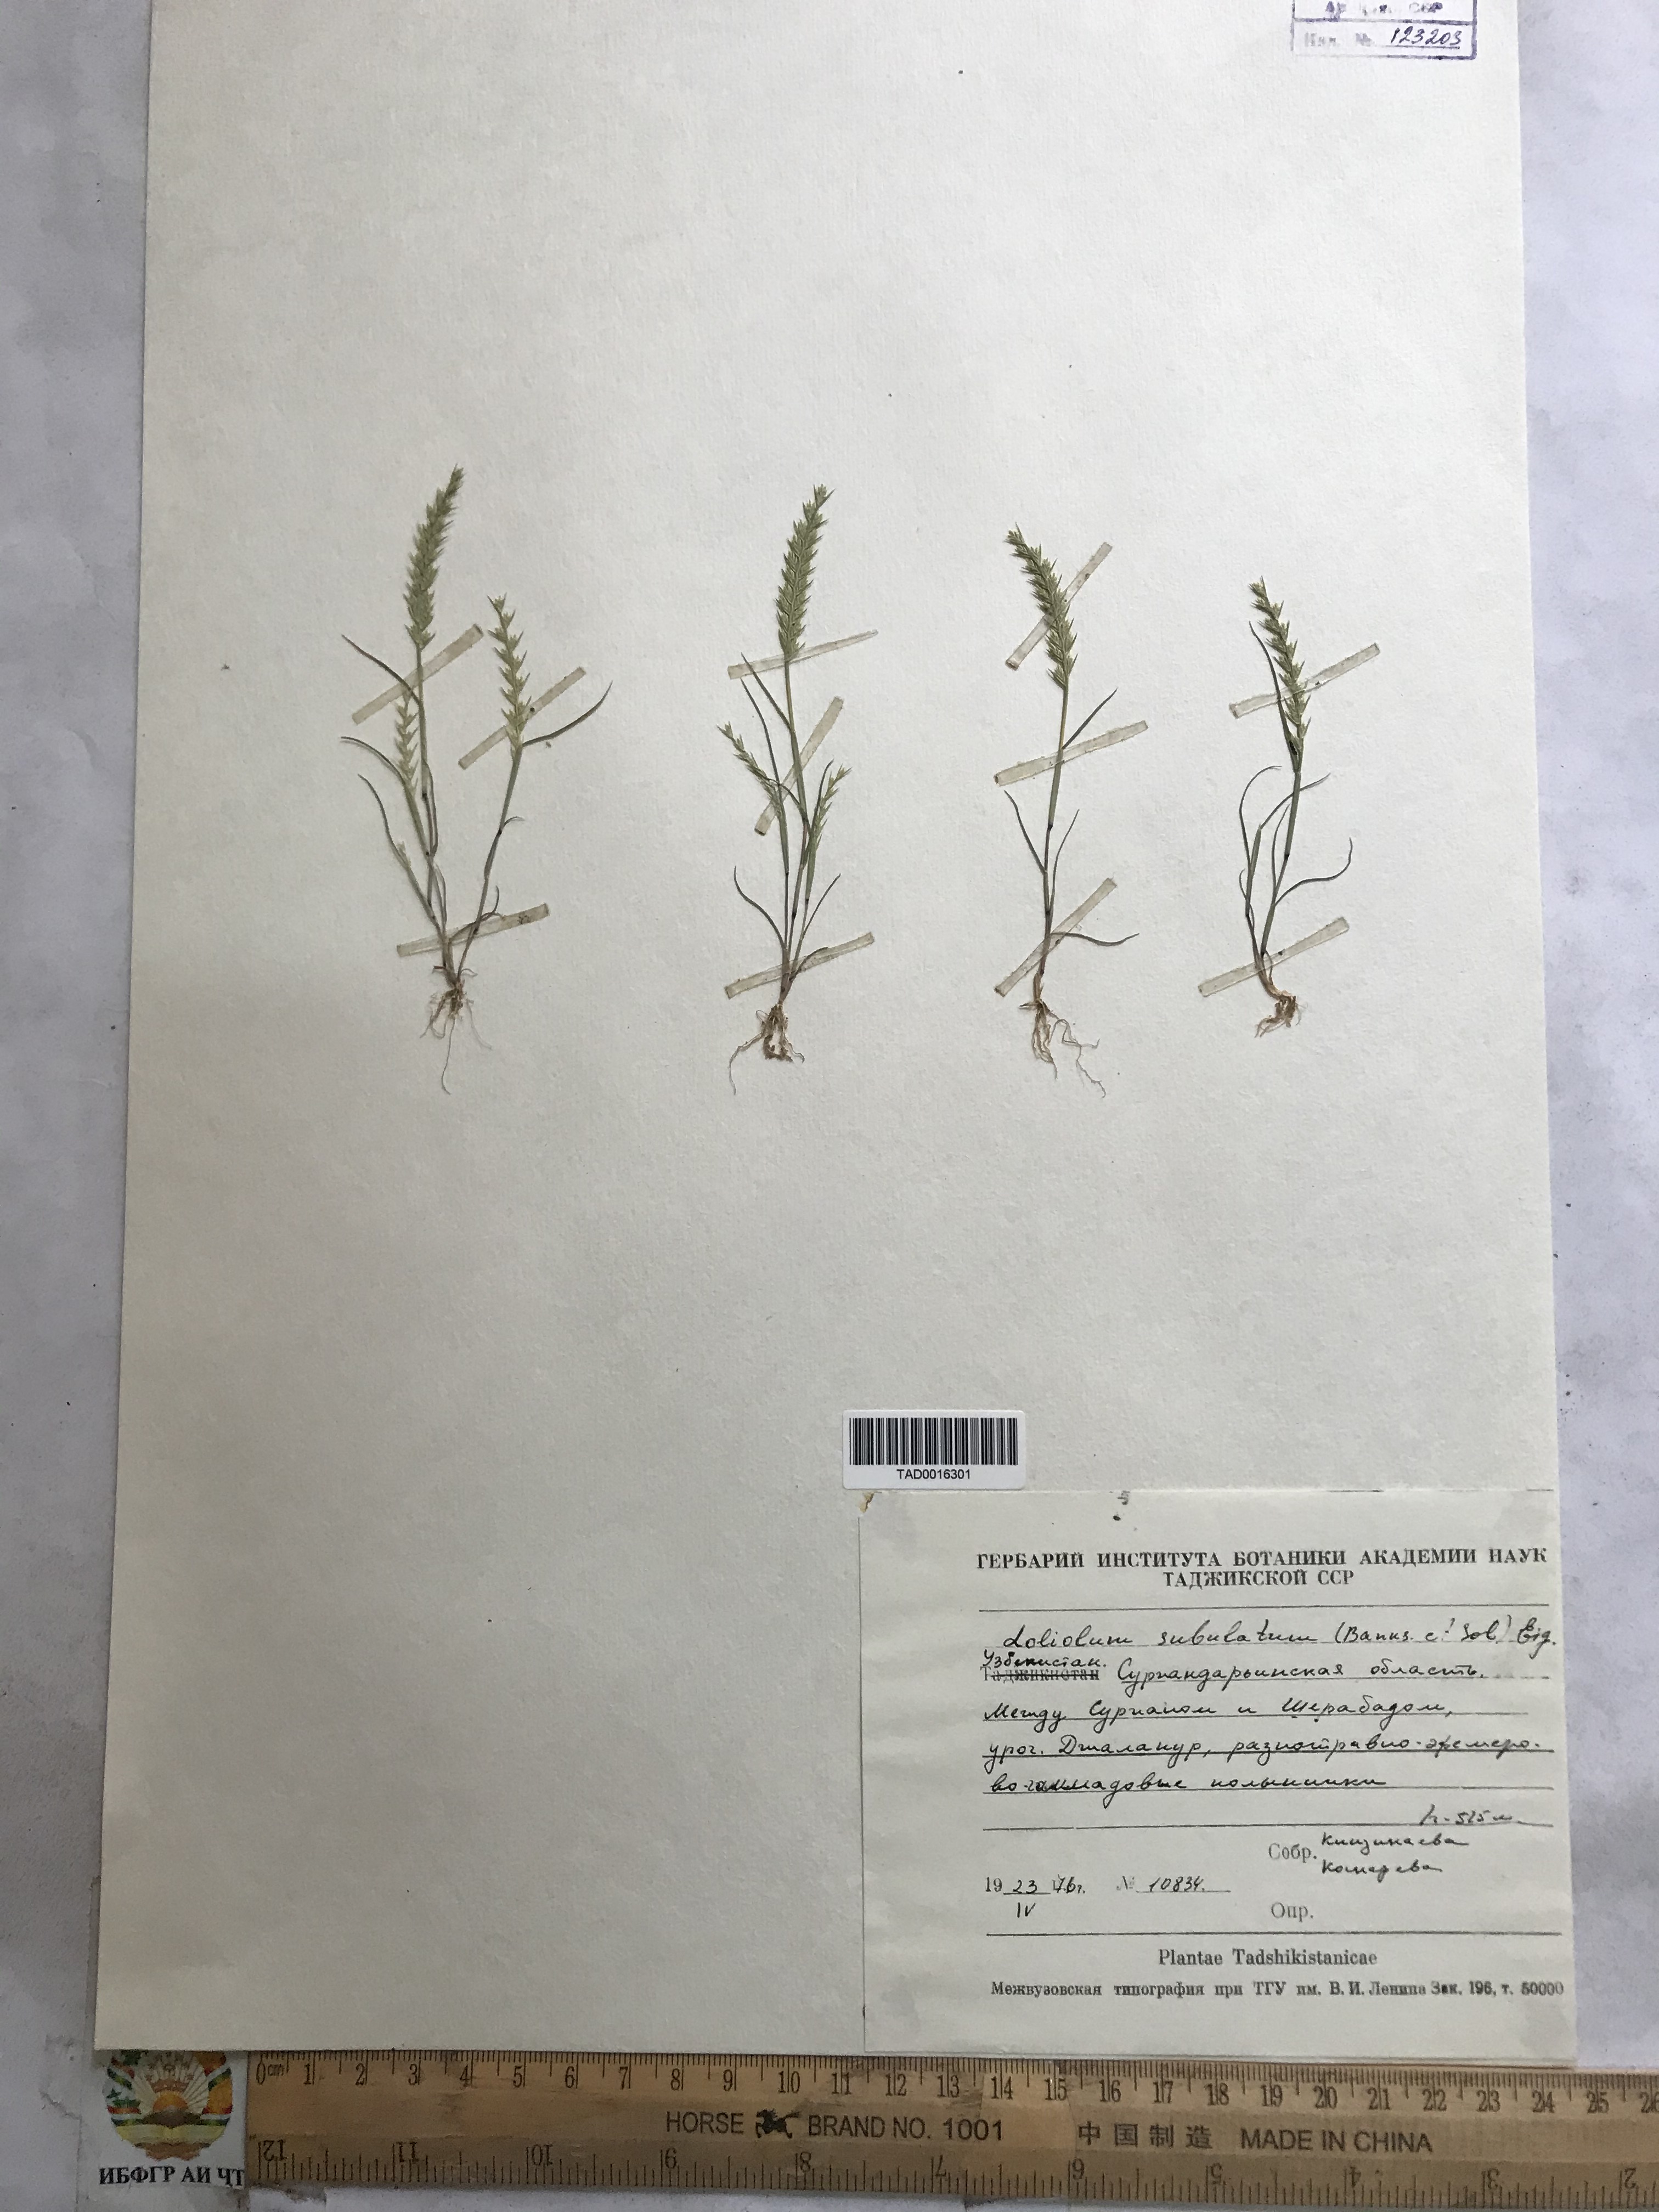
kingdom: Plantae
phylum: Tracheophyta
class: Liliopsida
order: Poales
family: Poaceae
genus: Festuca
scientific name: Festuca orientalis
